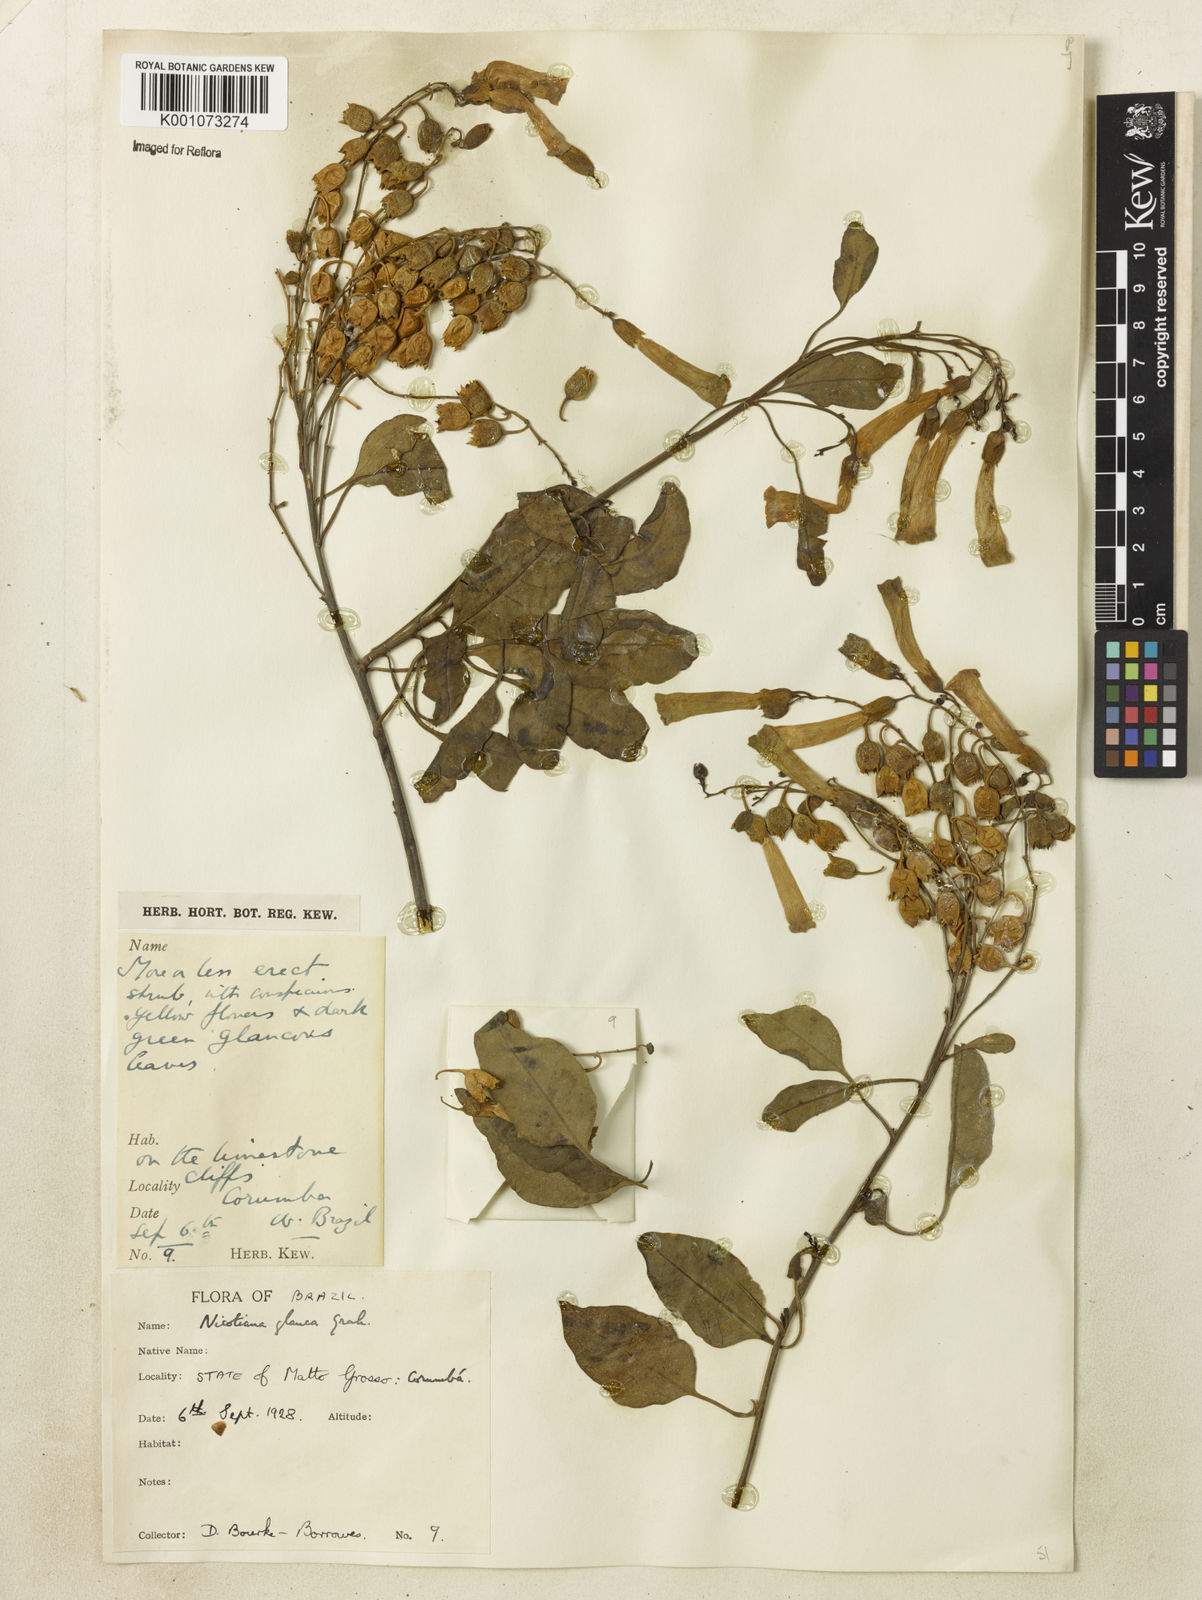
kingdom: Plantae
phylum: Tracheophyta
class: Magnoliopsida
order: Solanales
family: Solanaceae
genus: Nicotiana
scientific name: Nicotiana glauca
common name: Tree tobacco
